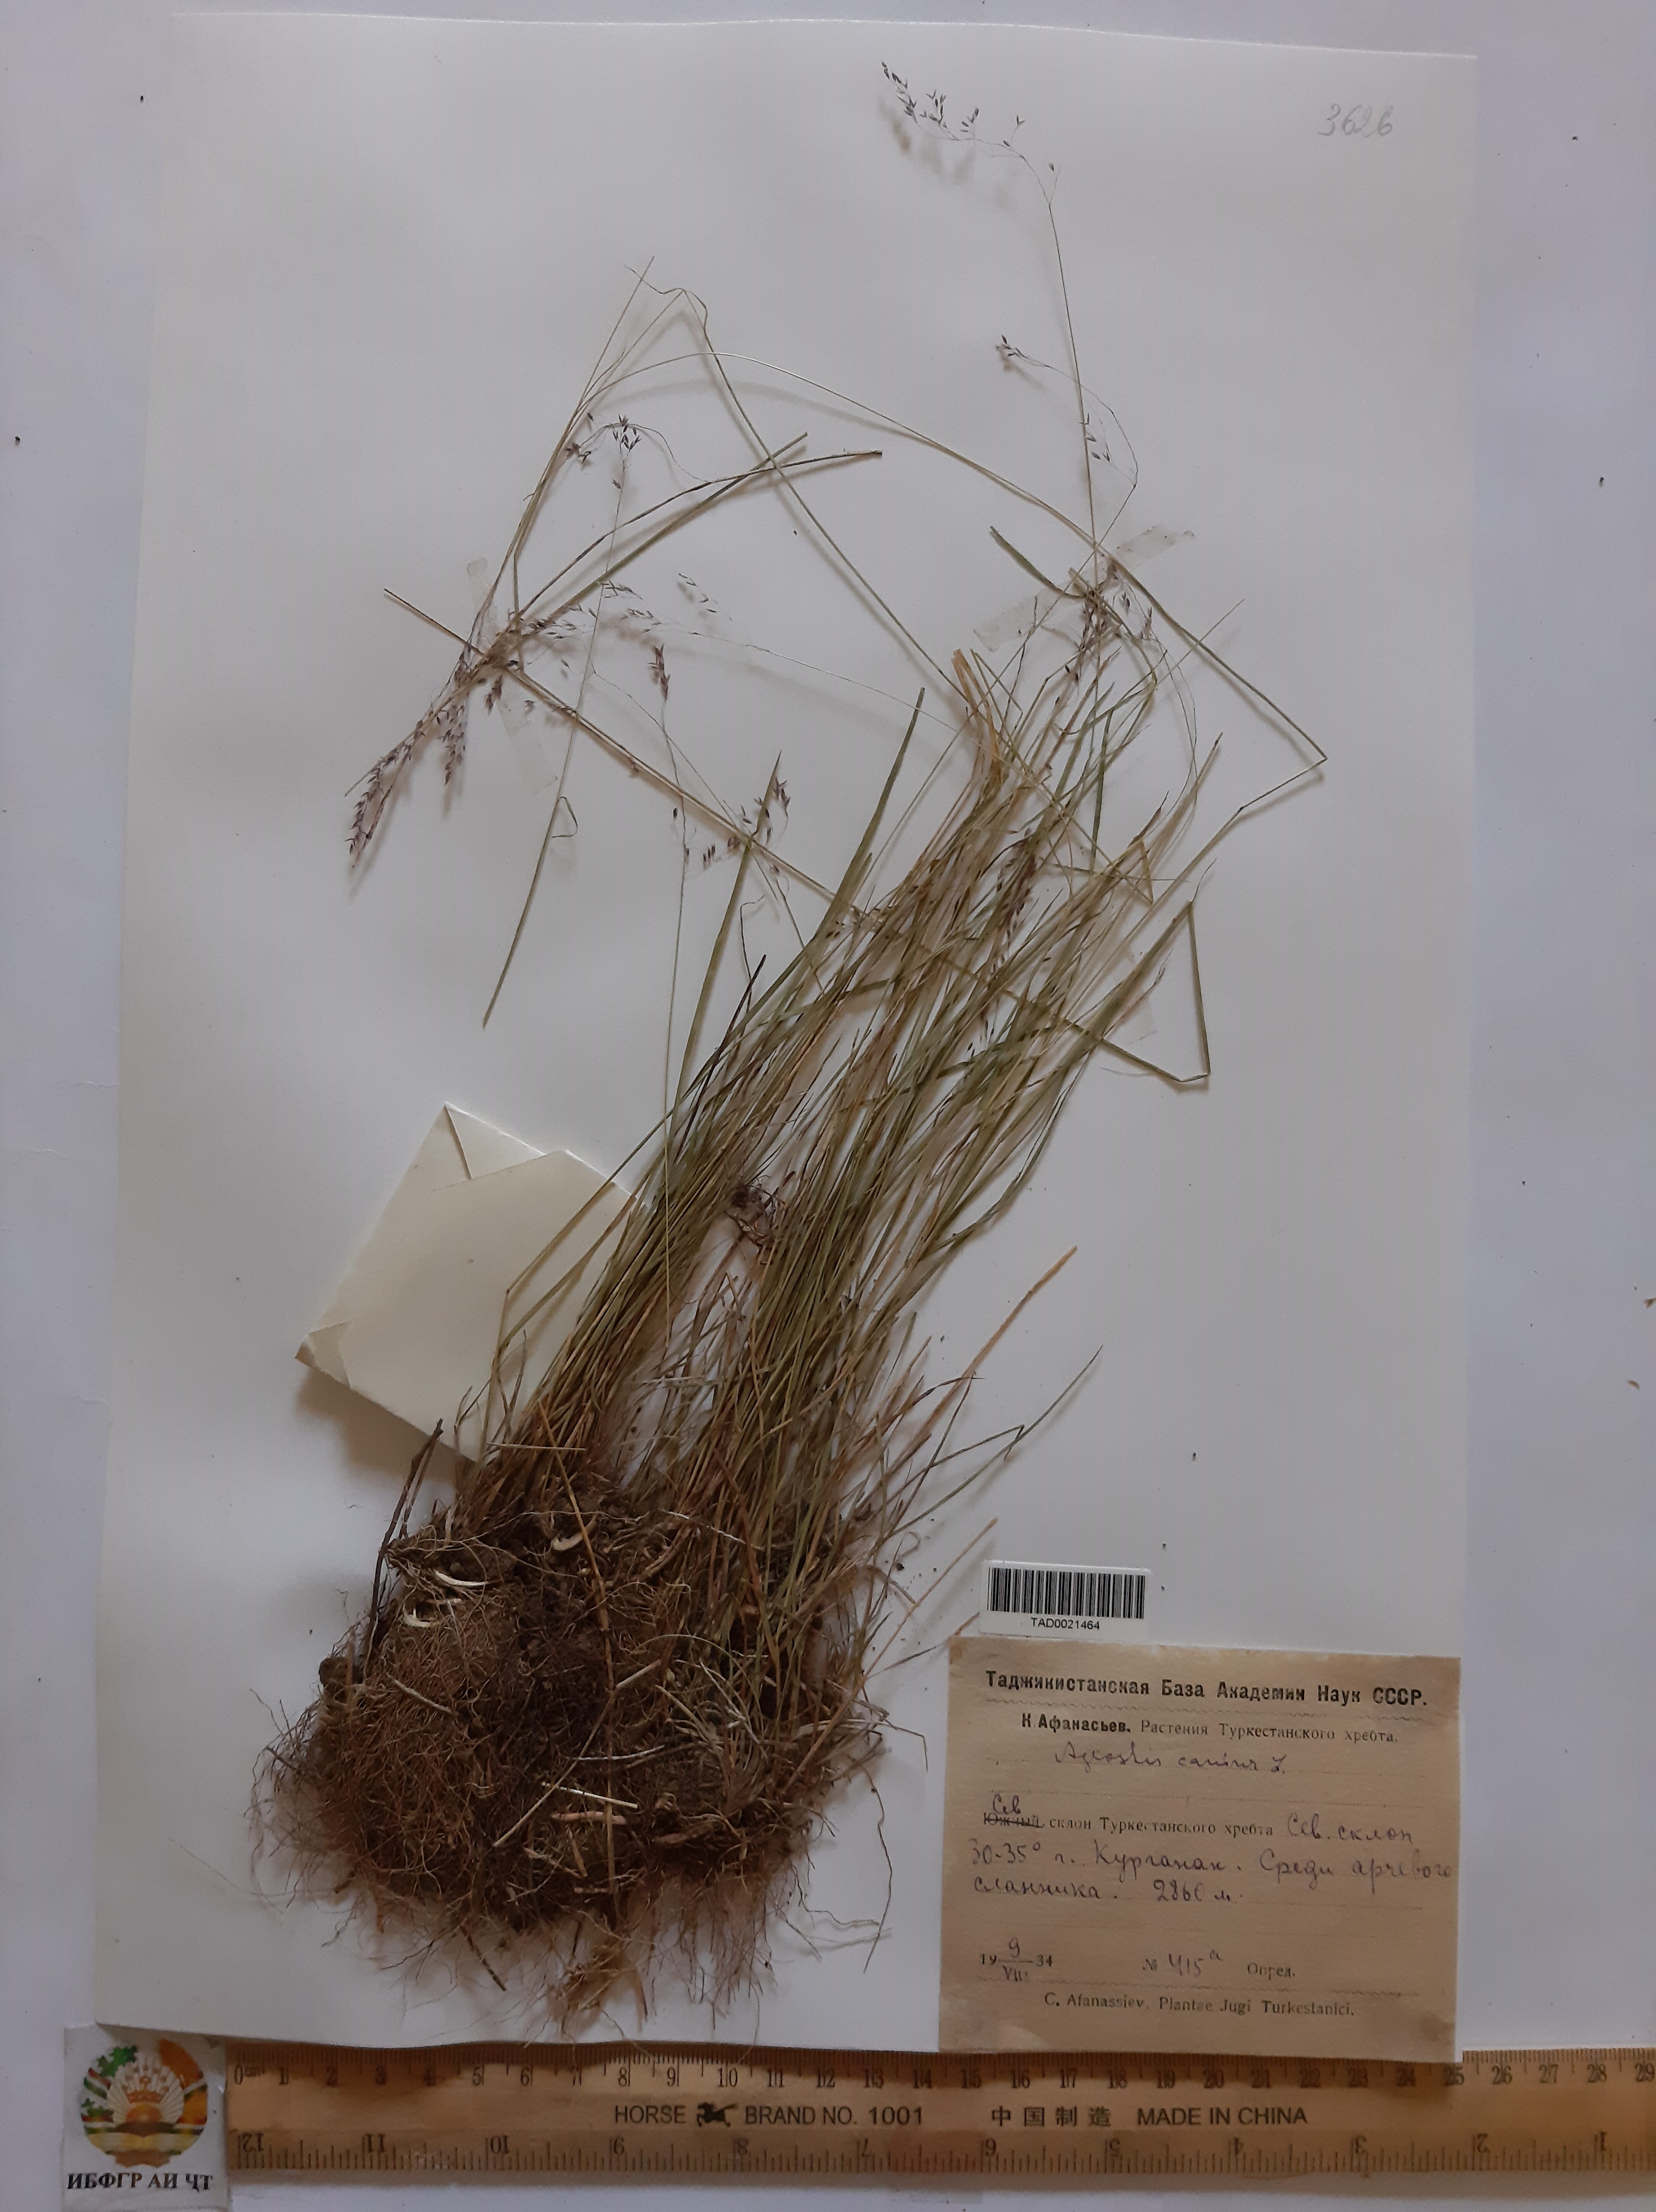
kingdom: Plantae
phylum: Tracheophyta
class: Liliopsida
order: Poales
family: Poaceae
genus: Agrostis
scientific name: Agrostis canina
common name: Velvet bent
